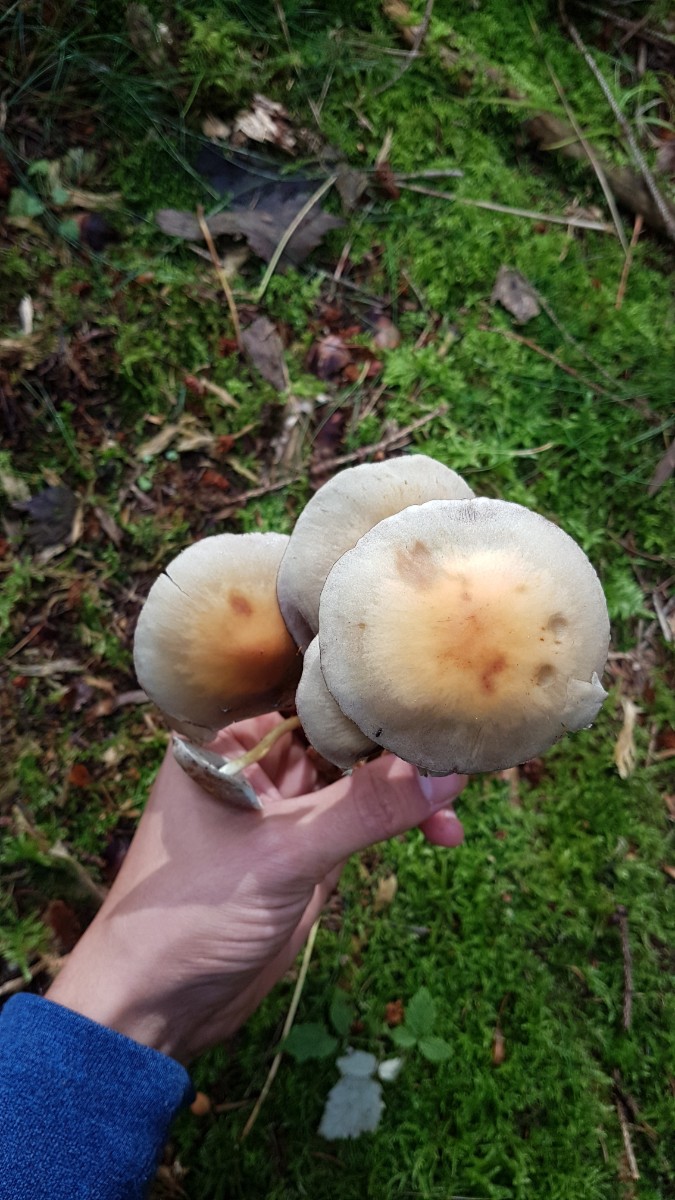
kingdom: Fungi
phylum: Basidiomycota
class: Agaricomycetes
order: Agaricales
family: Strophariaceae
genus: Hypholoma
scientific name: Hypholoma fasciculare
